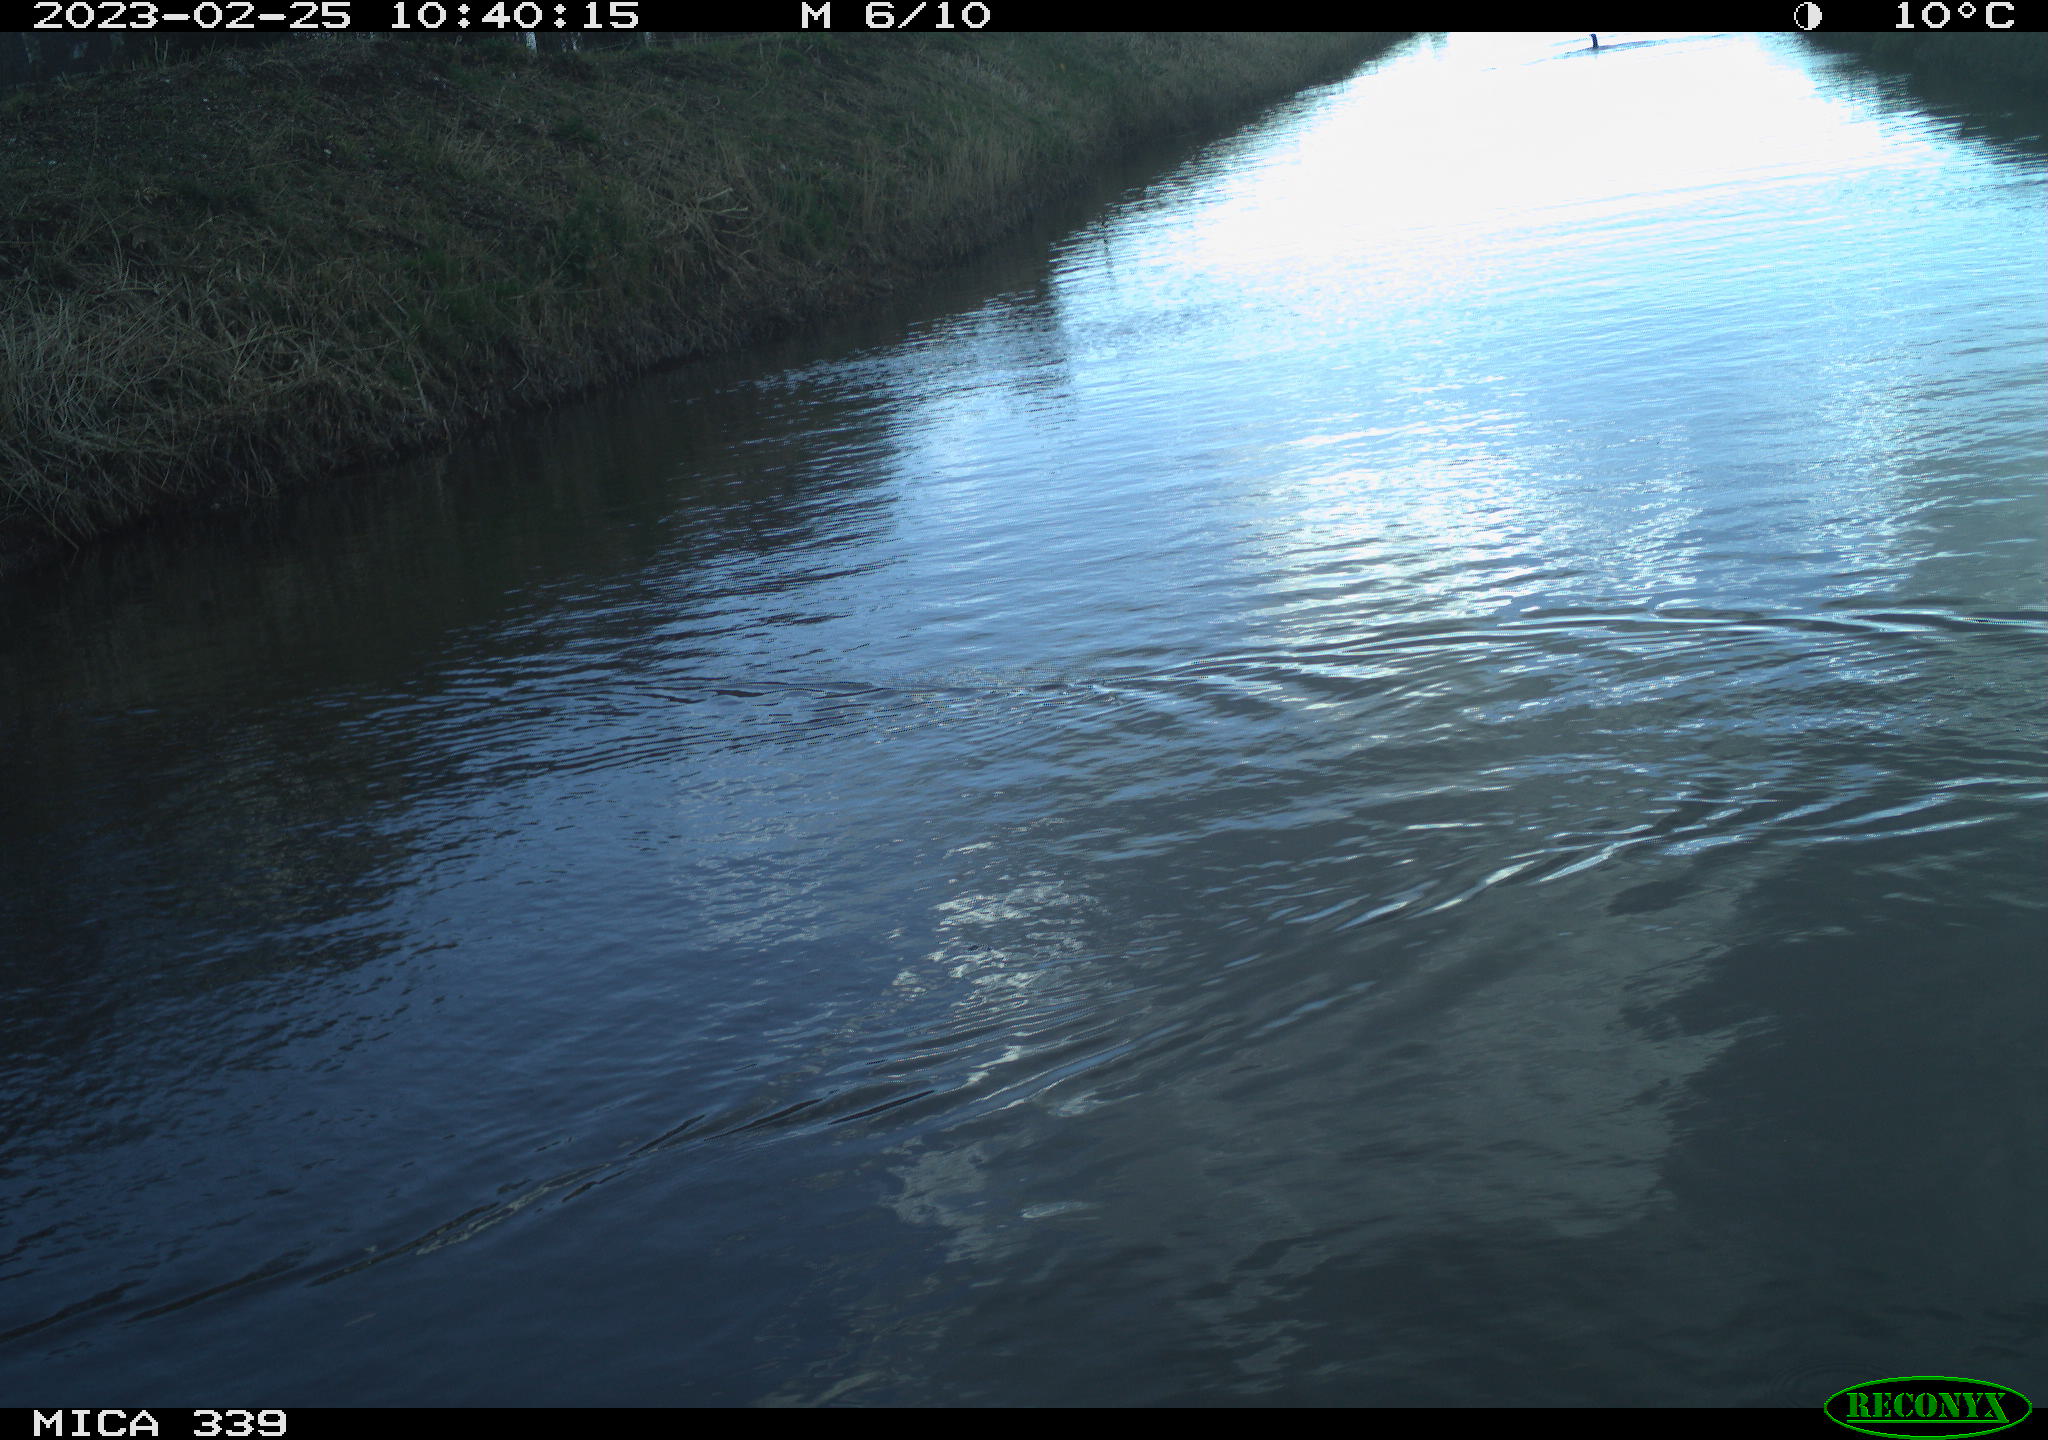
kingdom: Animalia
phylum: Chordata
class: Aves
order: Gruiformes
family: Rallidae
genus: Gallinula
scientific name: Gallinula chloropus
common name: Common moorhen
